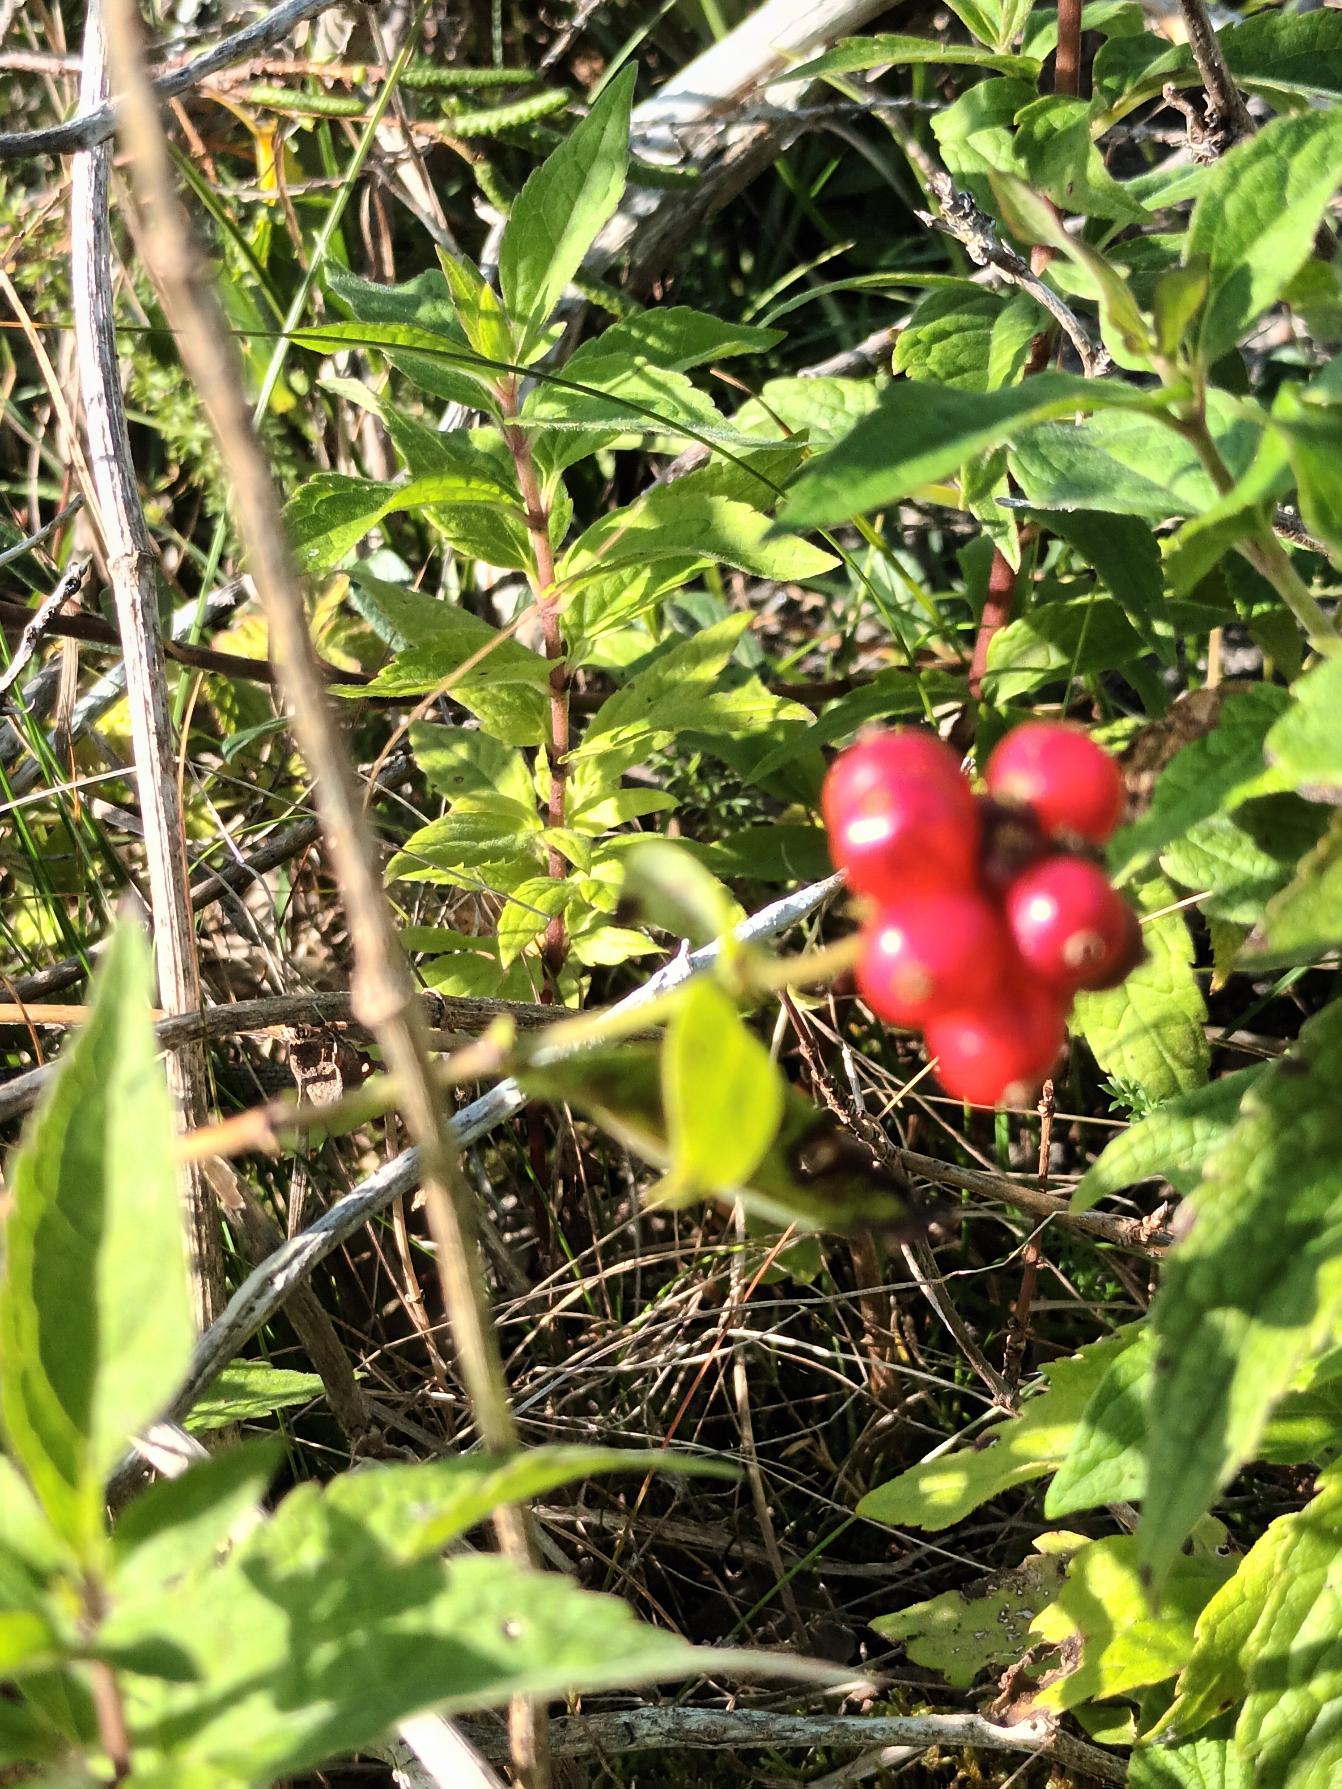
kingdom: Plantae
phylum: Tracheophyta
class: Magnoliopsida
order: Dipsacales
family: Caprifoliaceae
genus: Lonicera
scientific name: Lonicera periclymenum
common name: Almindelig gedeblad
